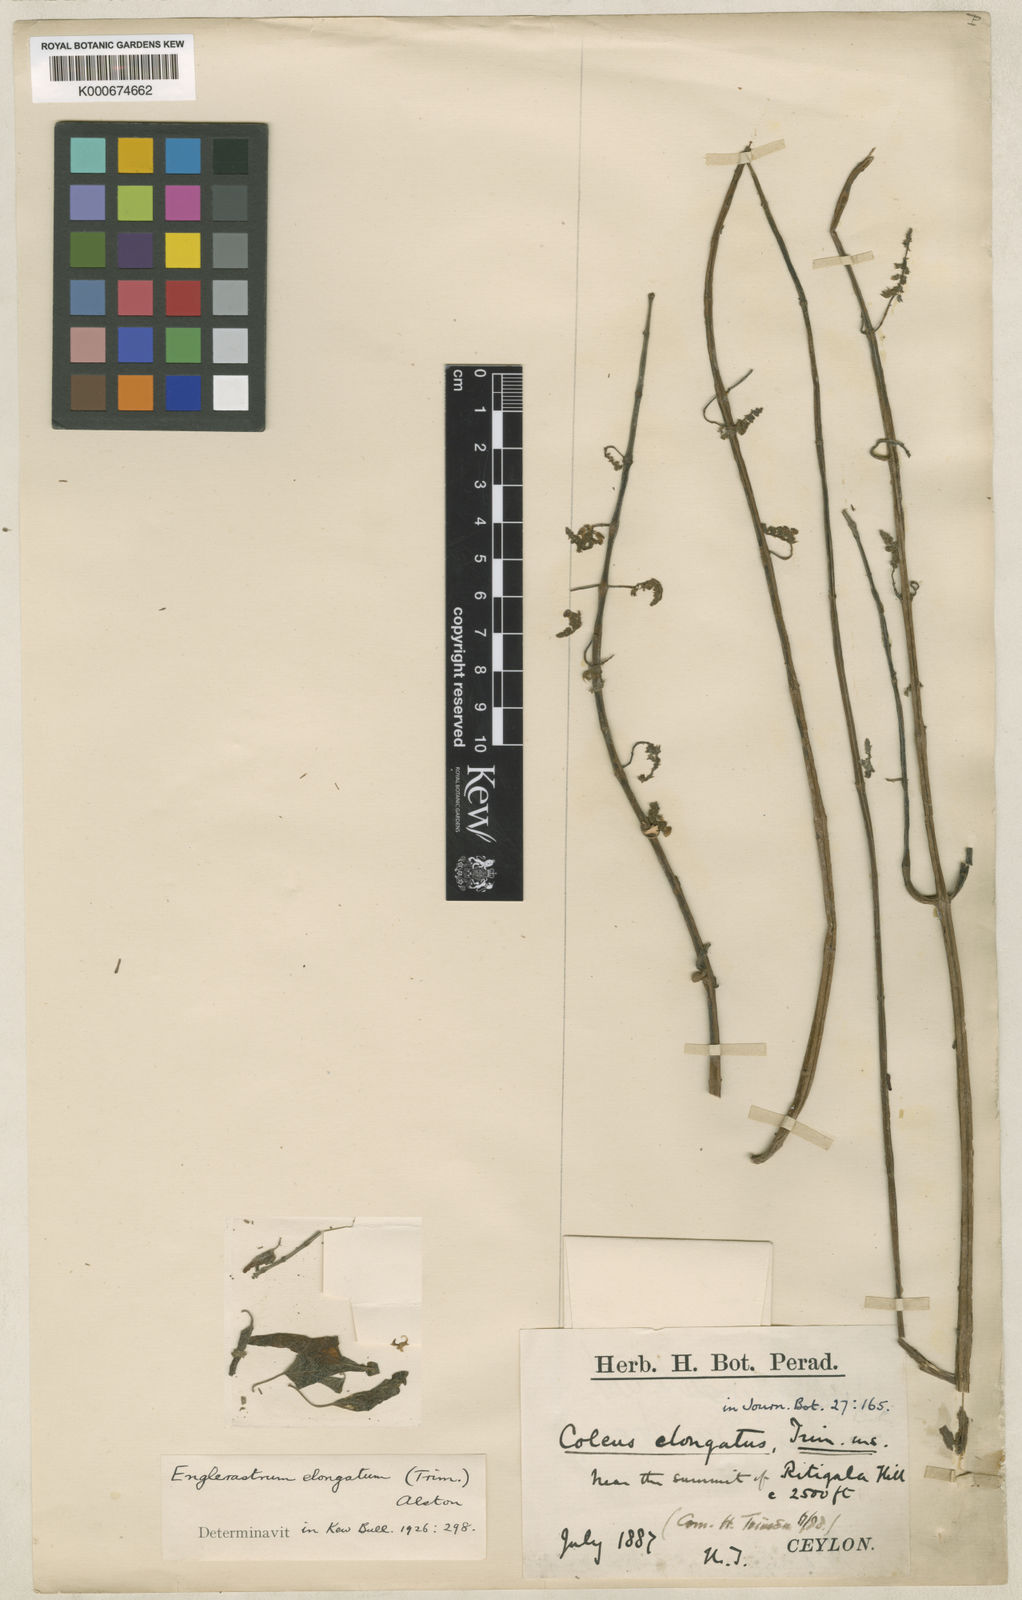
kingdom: Plantae
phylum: Tracheophyta
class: Magnoliopsida
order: Lamiales
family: Lamiaceae
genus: Coleus
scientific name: Coleus elongatus
